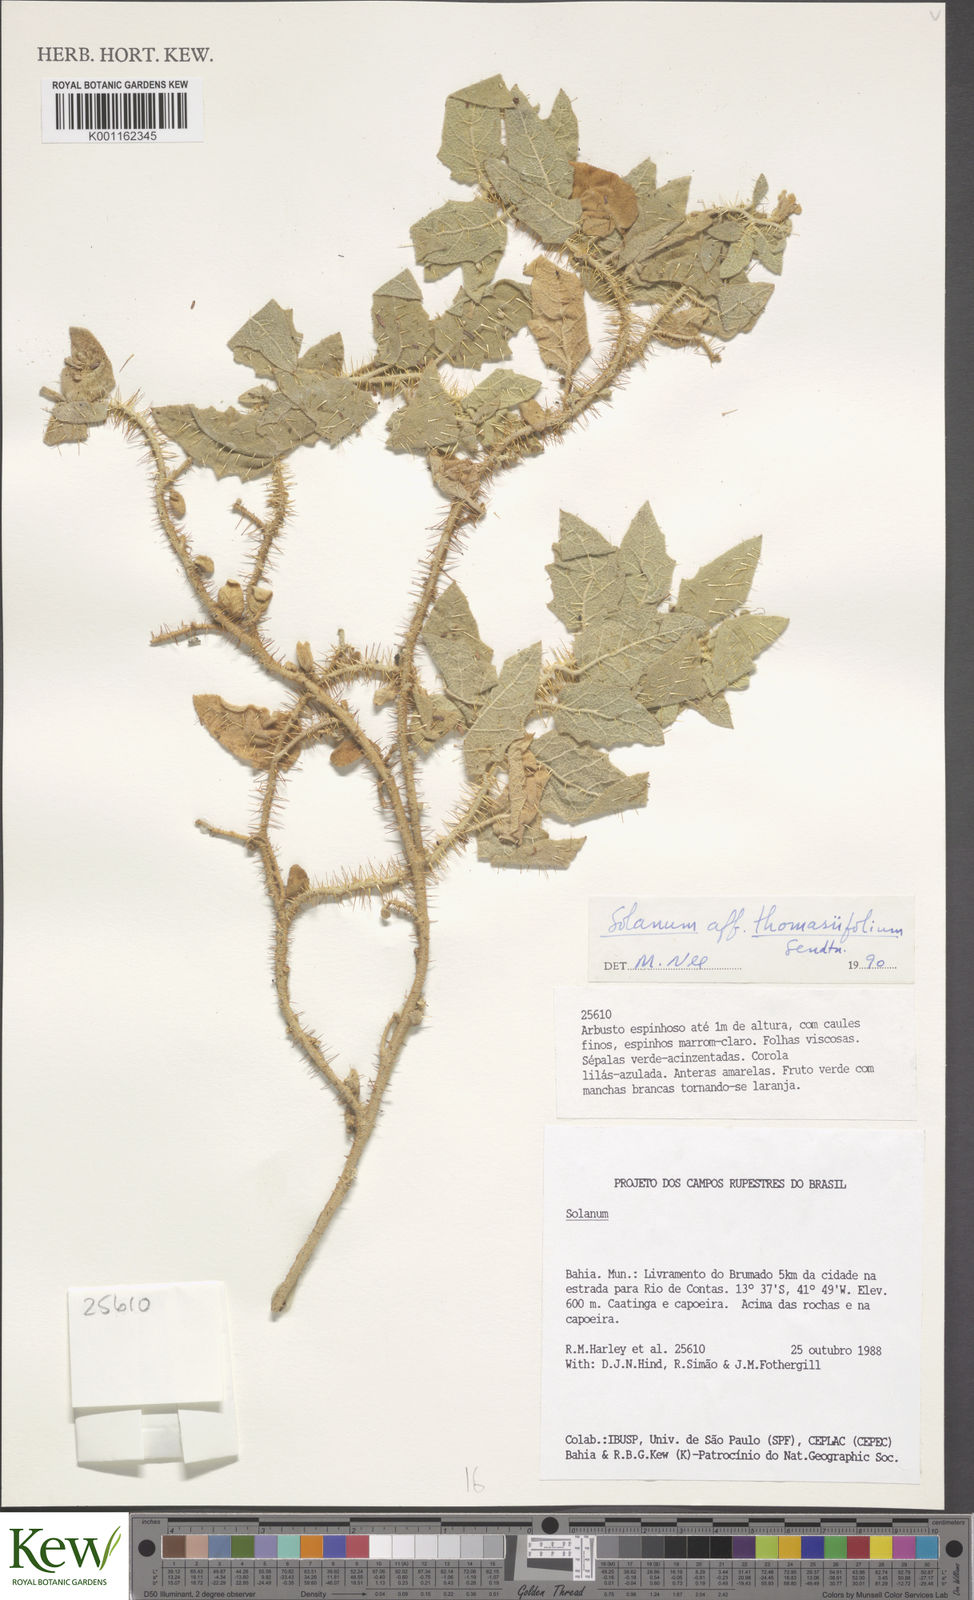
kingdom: Plantae
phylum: Tracheophyta
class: Magnoliopsida
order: Solanales
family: Solanaceae
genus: Solanum
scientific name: Solanum thomasiifolium
